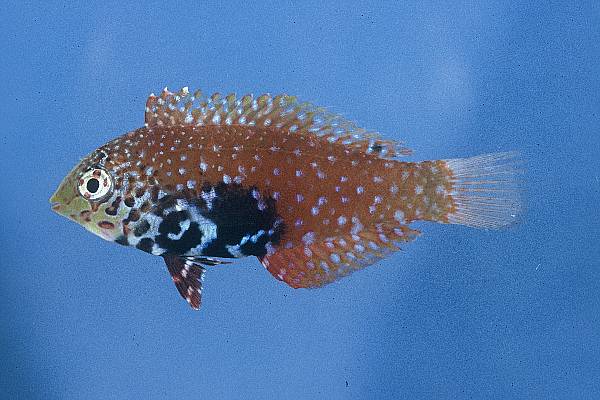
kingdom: Animalia
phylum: Chordata
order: Perciformes
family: Labridae
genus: Macropharyngodon
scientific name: Macropharyngodon bipartitus
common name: Divided wrasse
